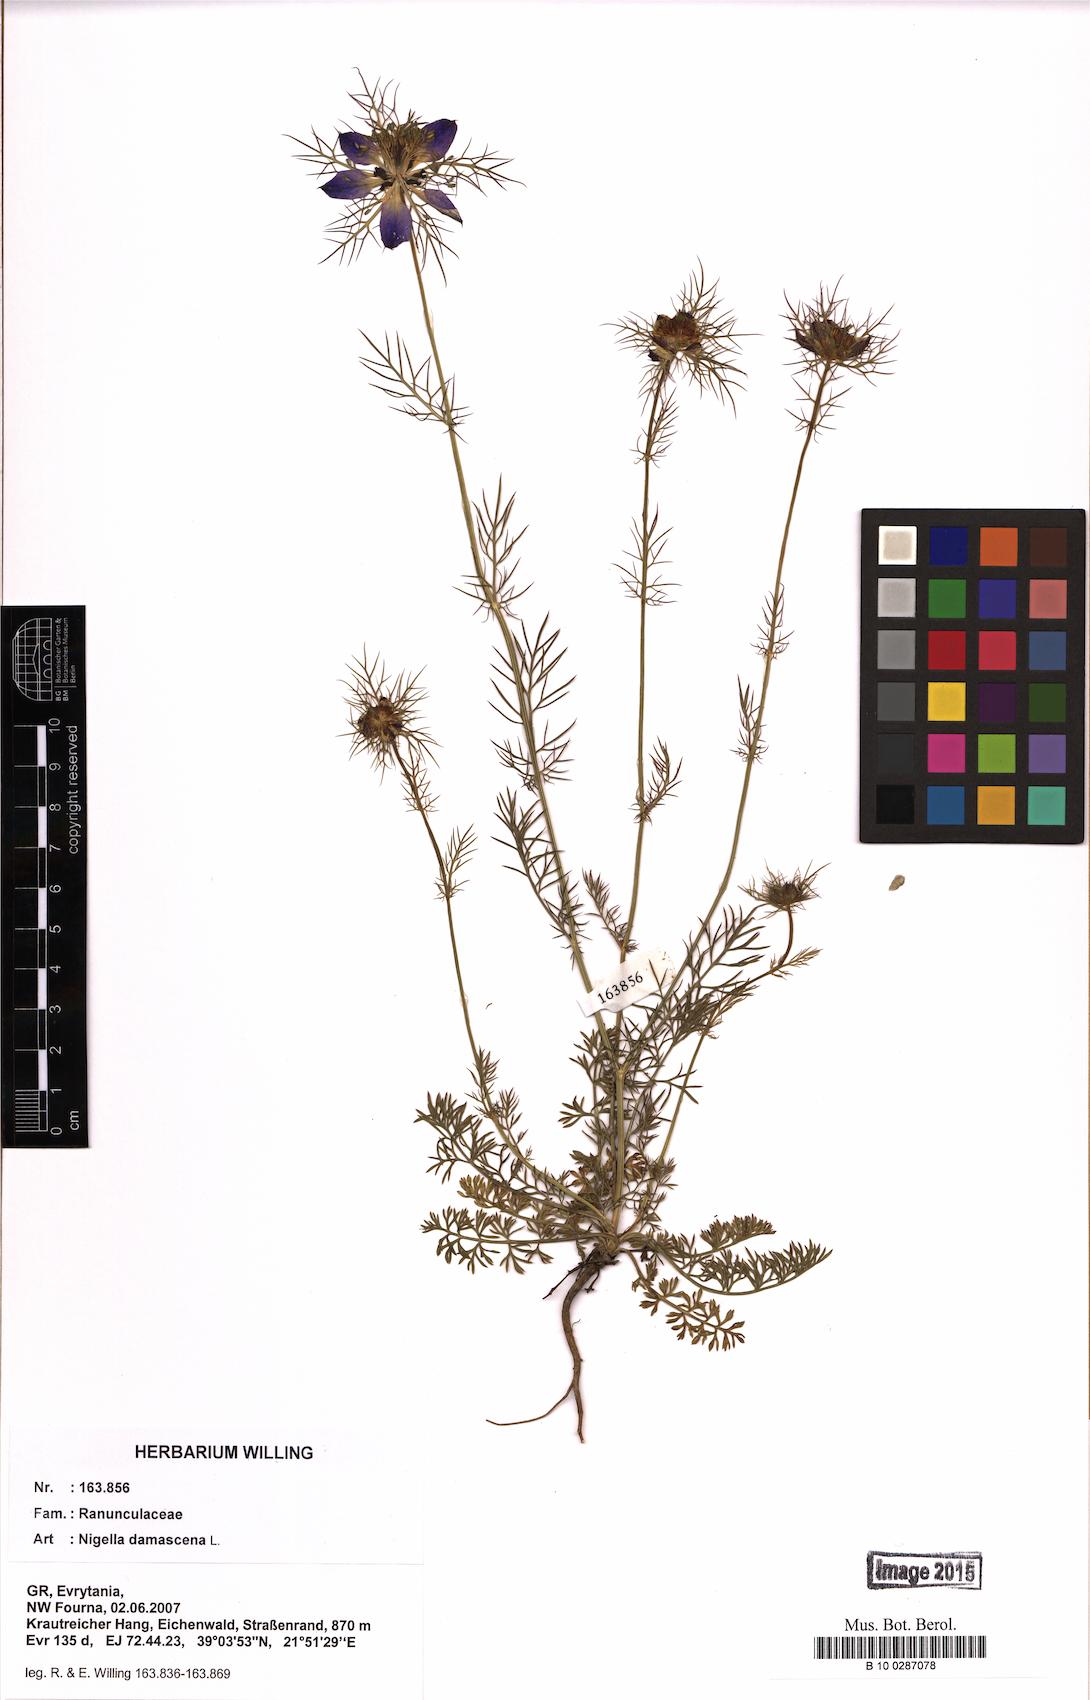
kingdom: Plantae
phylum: Tracheophyta
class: Magnoliopsida
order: Ranunculales
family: Ranunculaceae
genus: Nigella
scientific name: Nigella damascena
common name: Love-in-a-mist
